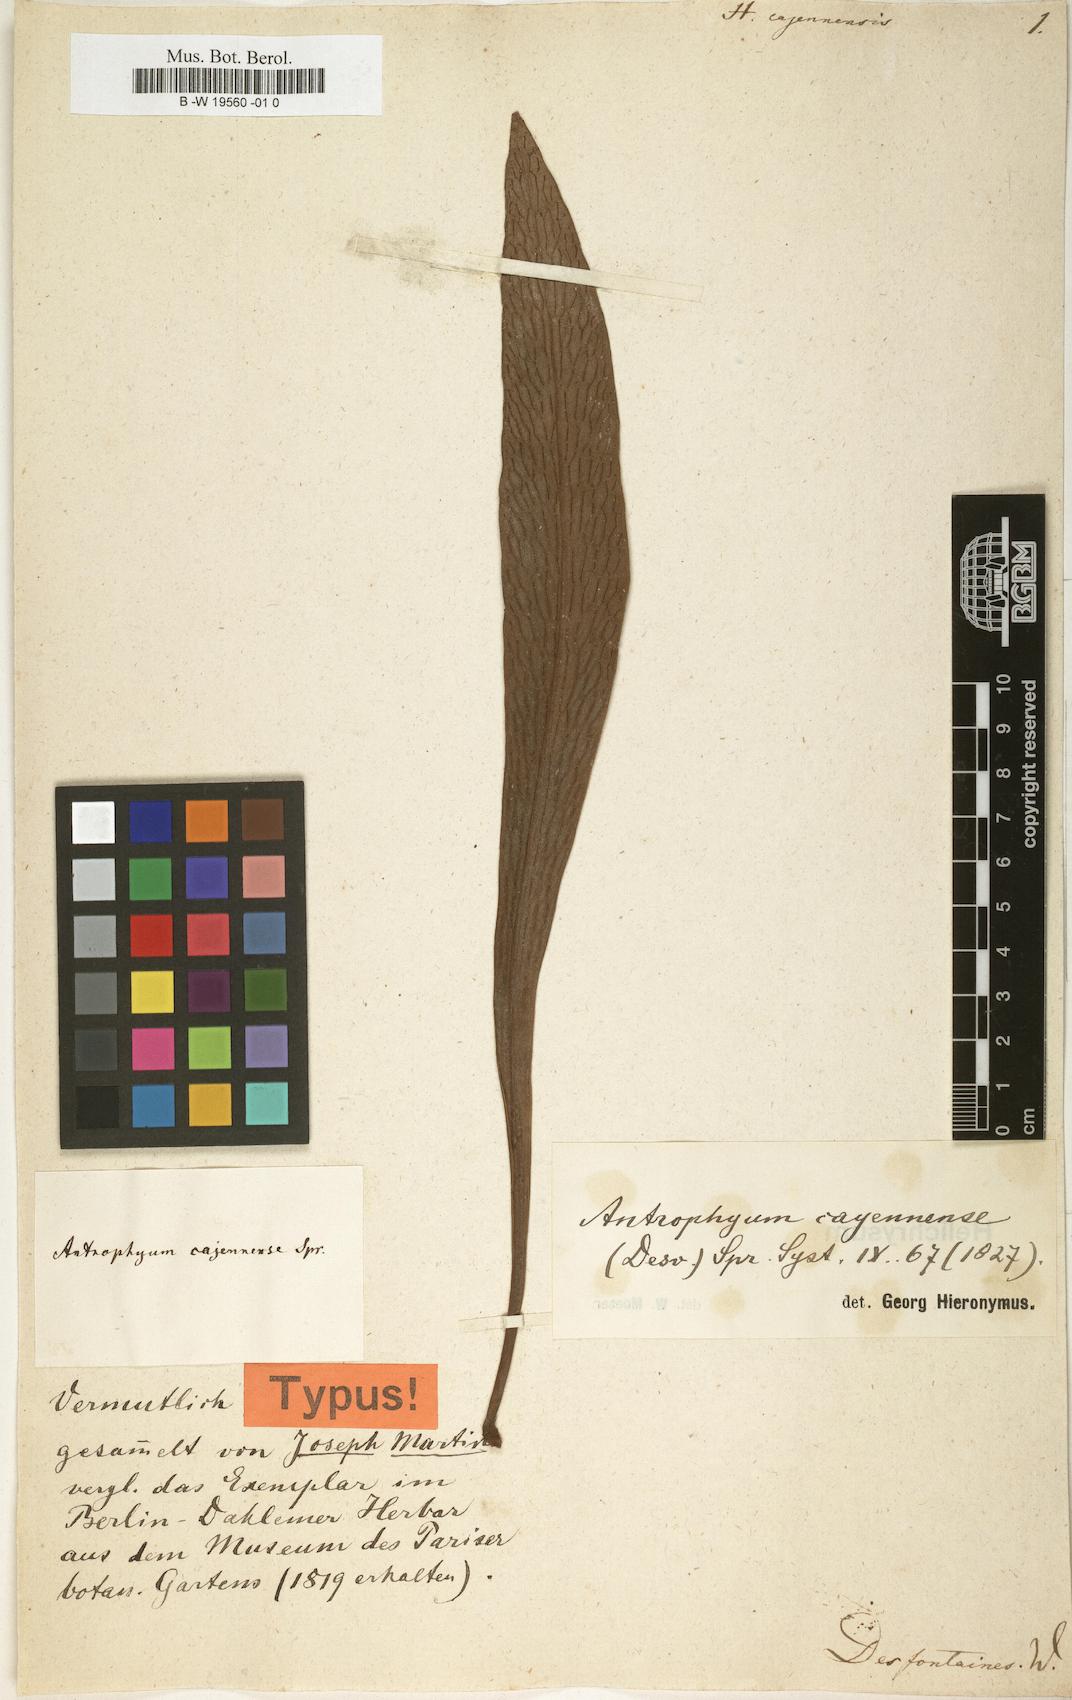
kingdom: Plantae
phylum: Tracheophyta
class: Polypodiopsida
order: Polypodiales
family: Pteridaceae
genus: Polytaenium
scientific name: Polytaenium cajenense
